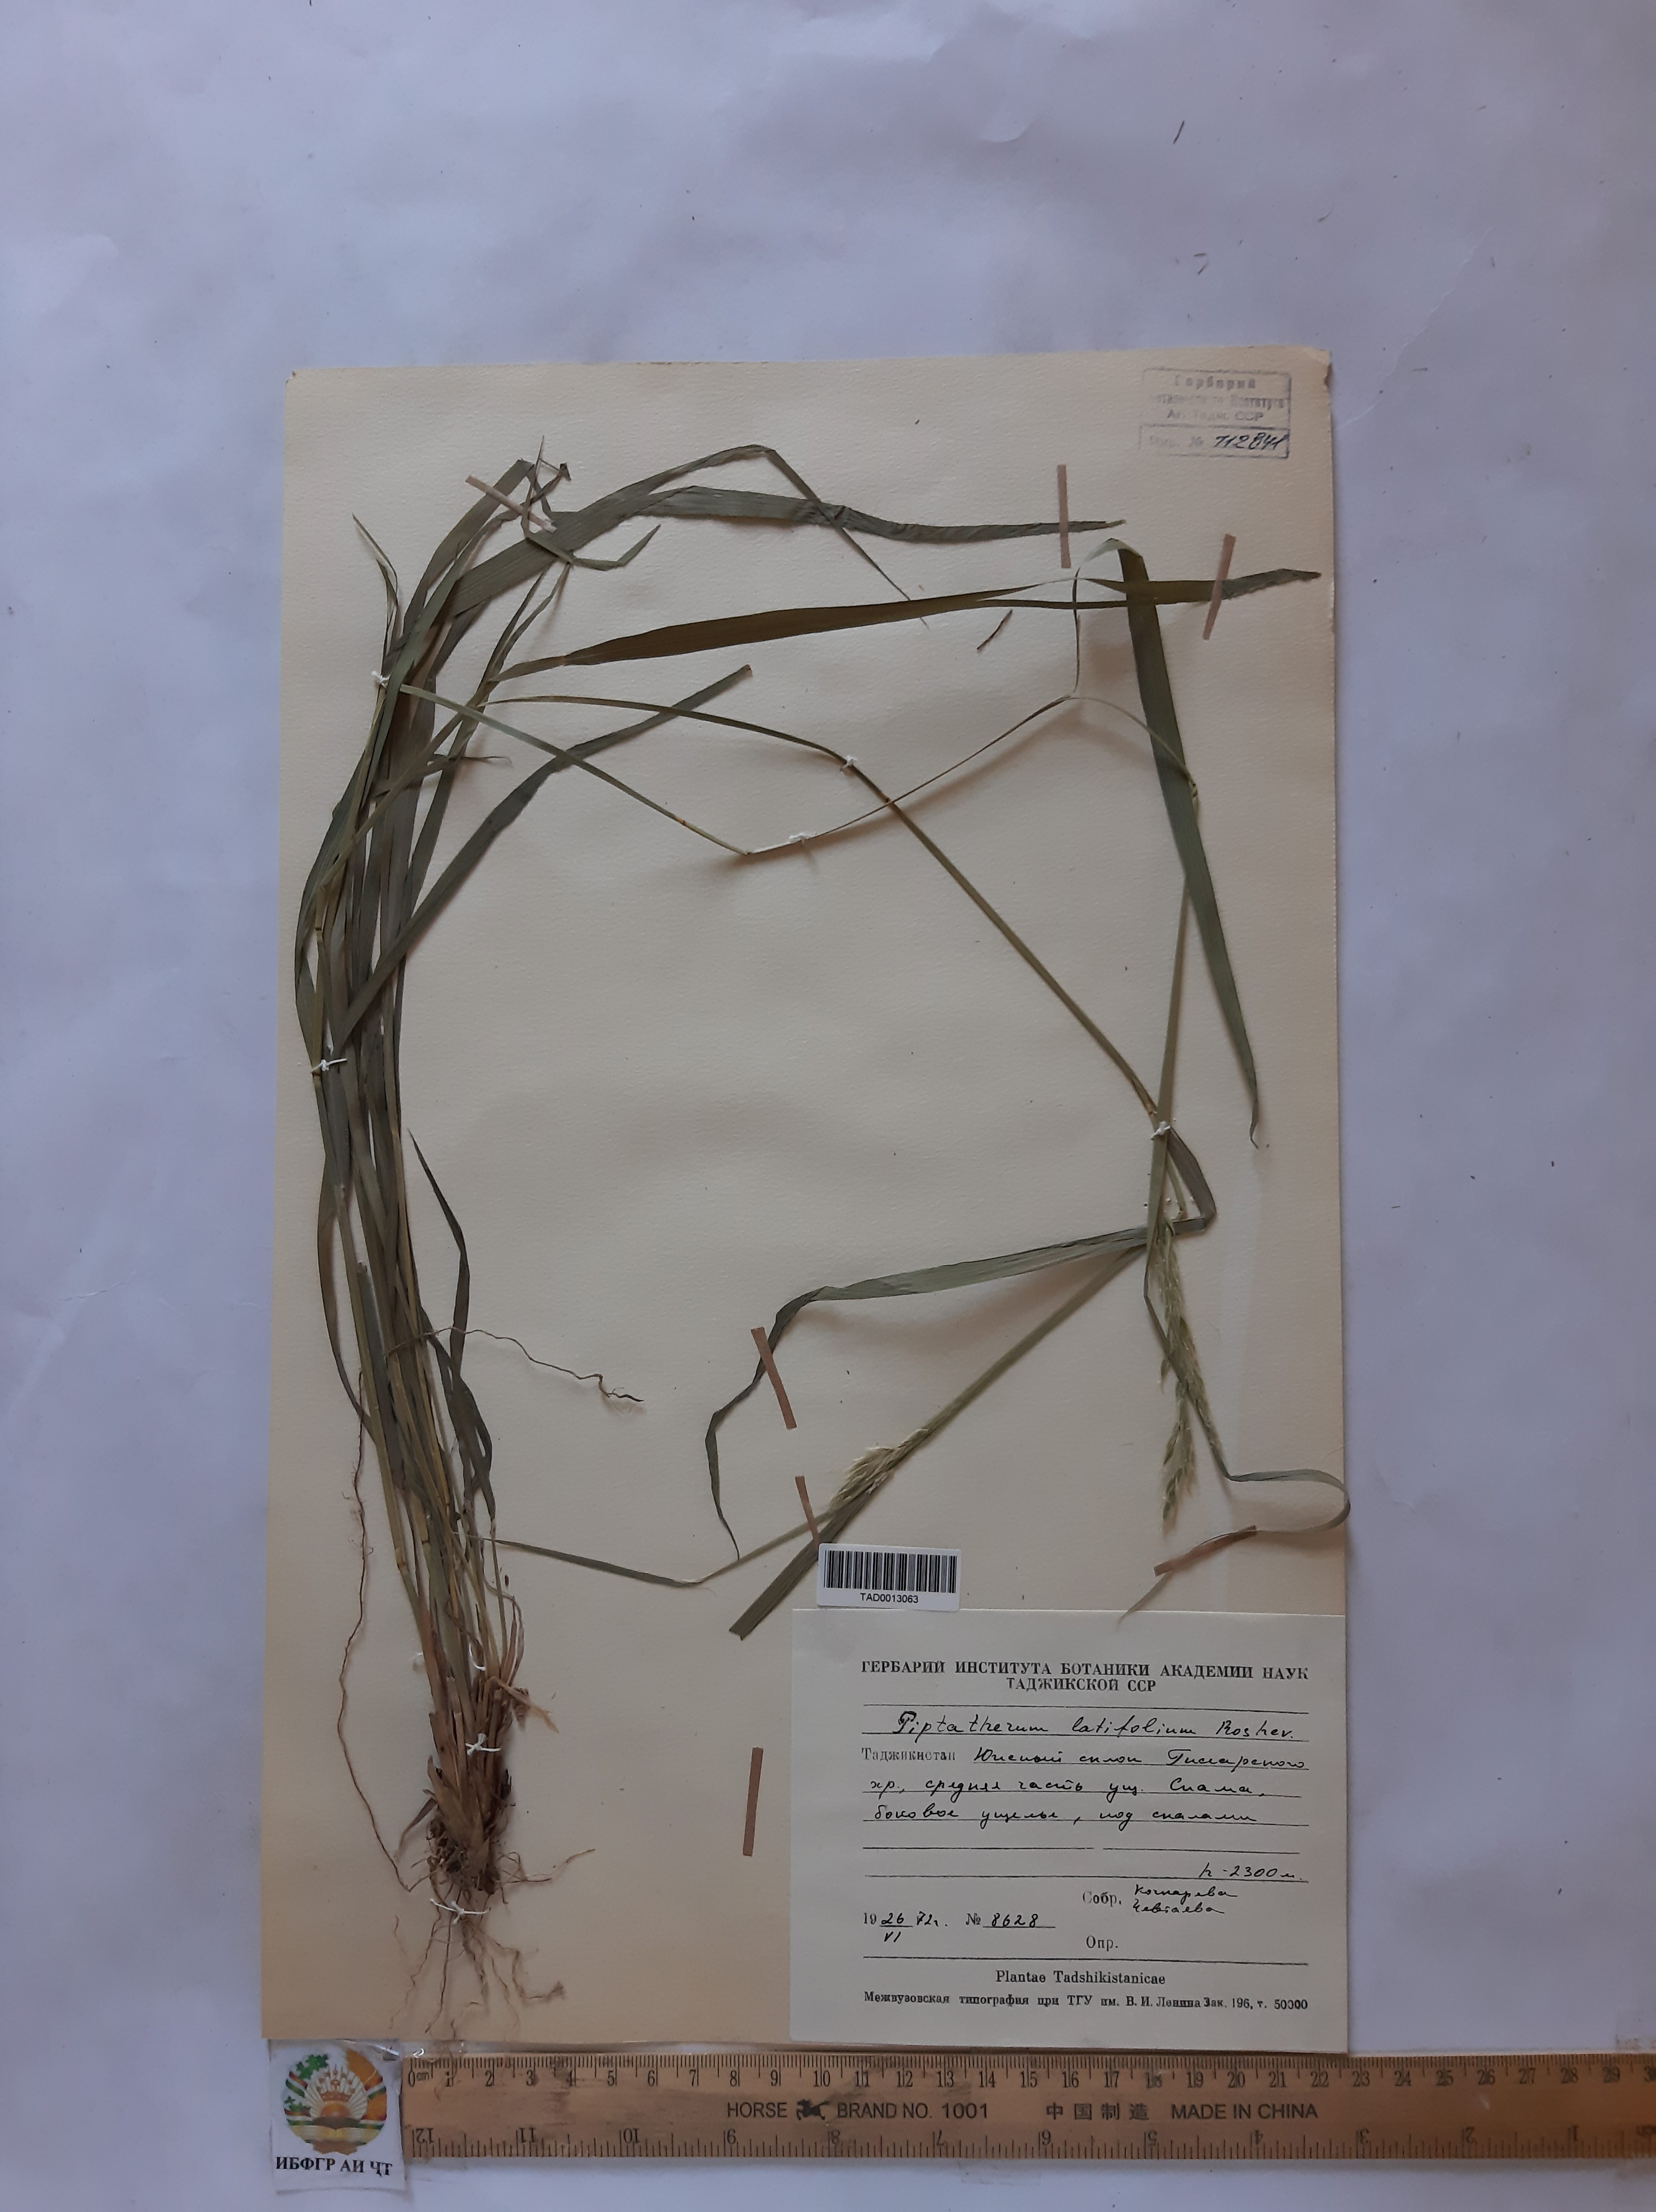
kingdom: Plantae
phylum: Tracheophyta
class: Liliopsida
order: Poales
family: Poaceae
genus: Piptatherum
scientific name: Piptatherum laterale
